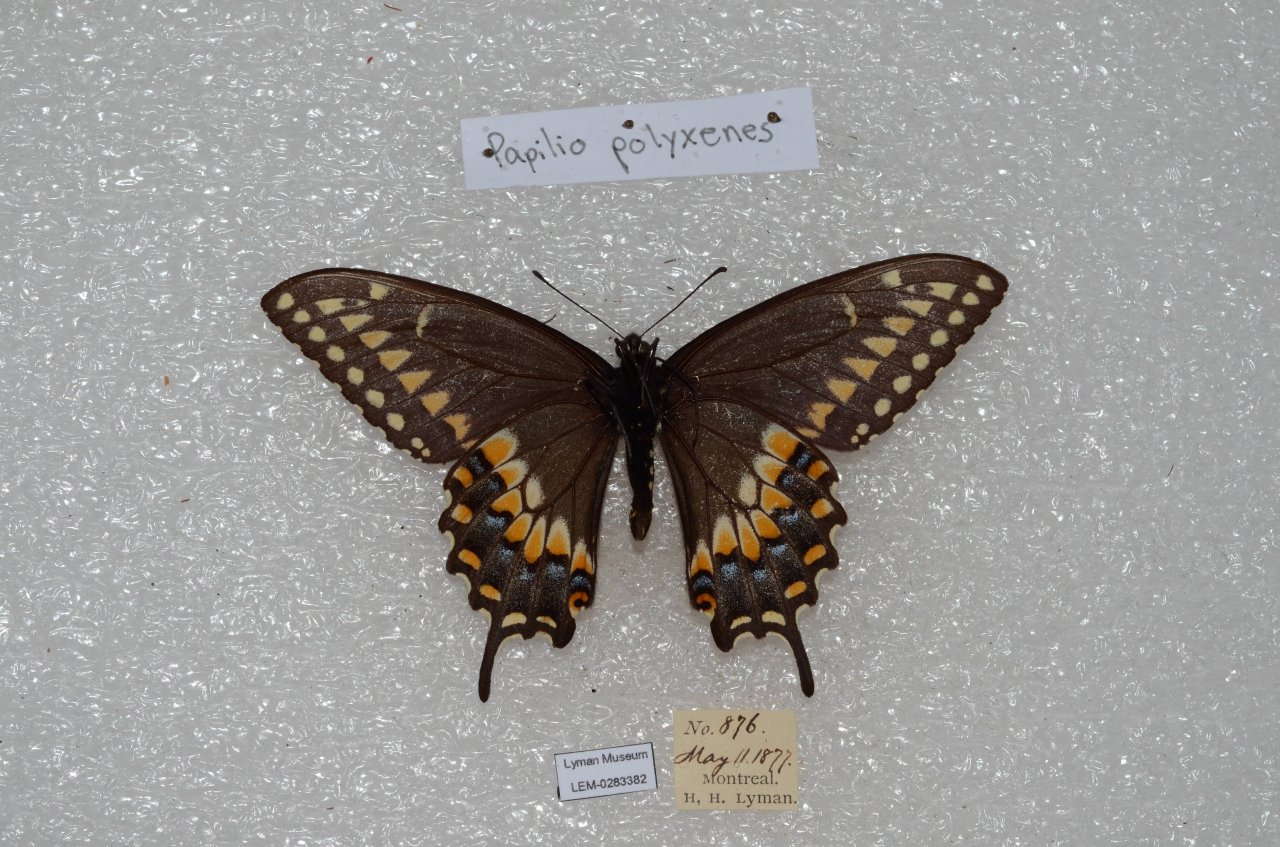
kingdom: Animalia
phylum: Arthropoda
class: Insecta
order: Lepidoptera
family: Papilionidae
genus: Papilio
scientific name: Papilio polyxenes
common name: Black Swallowtail
